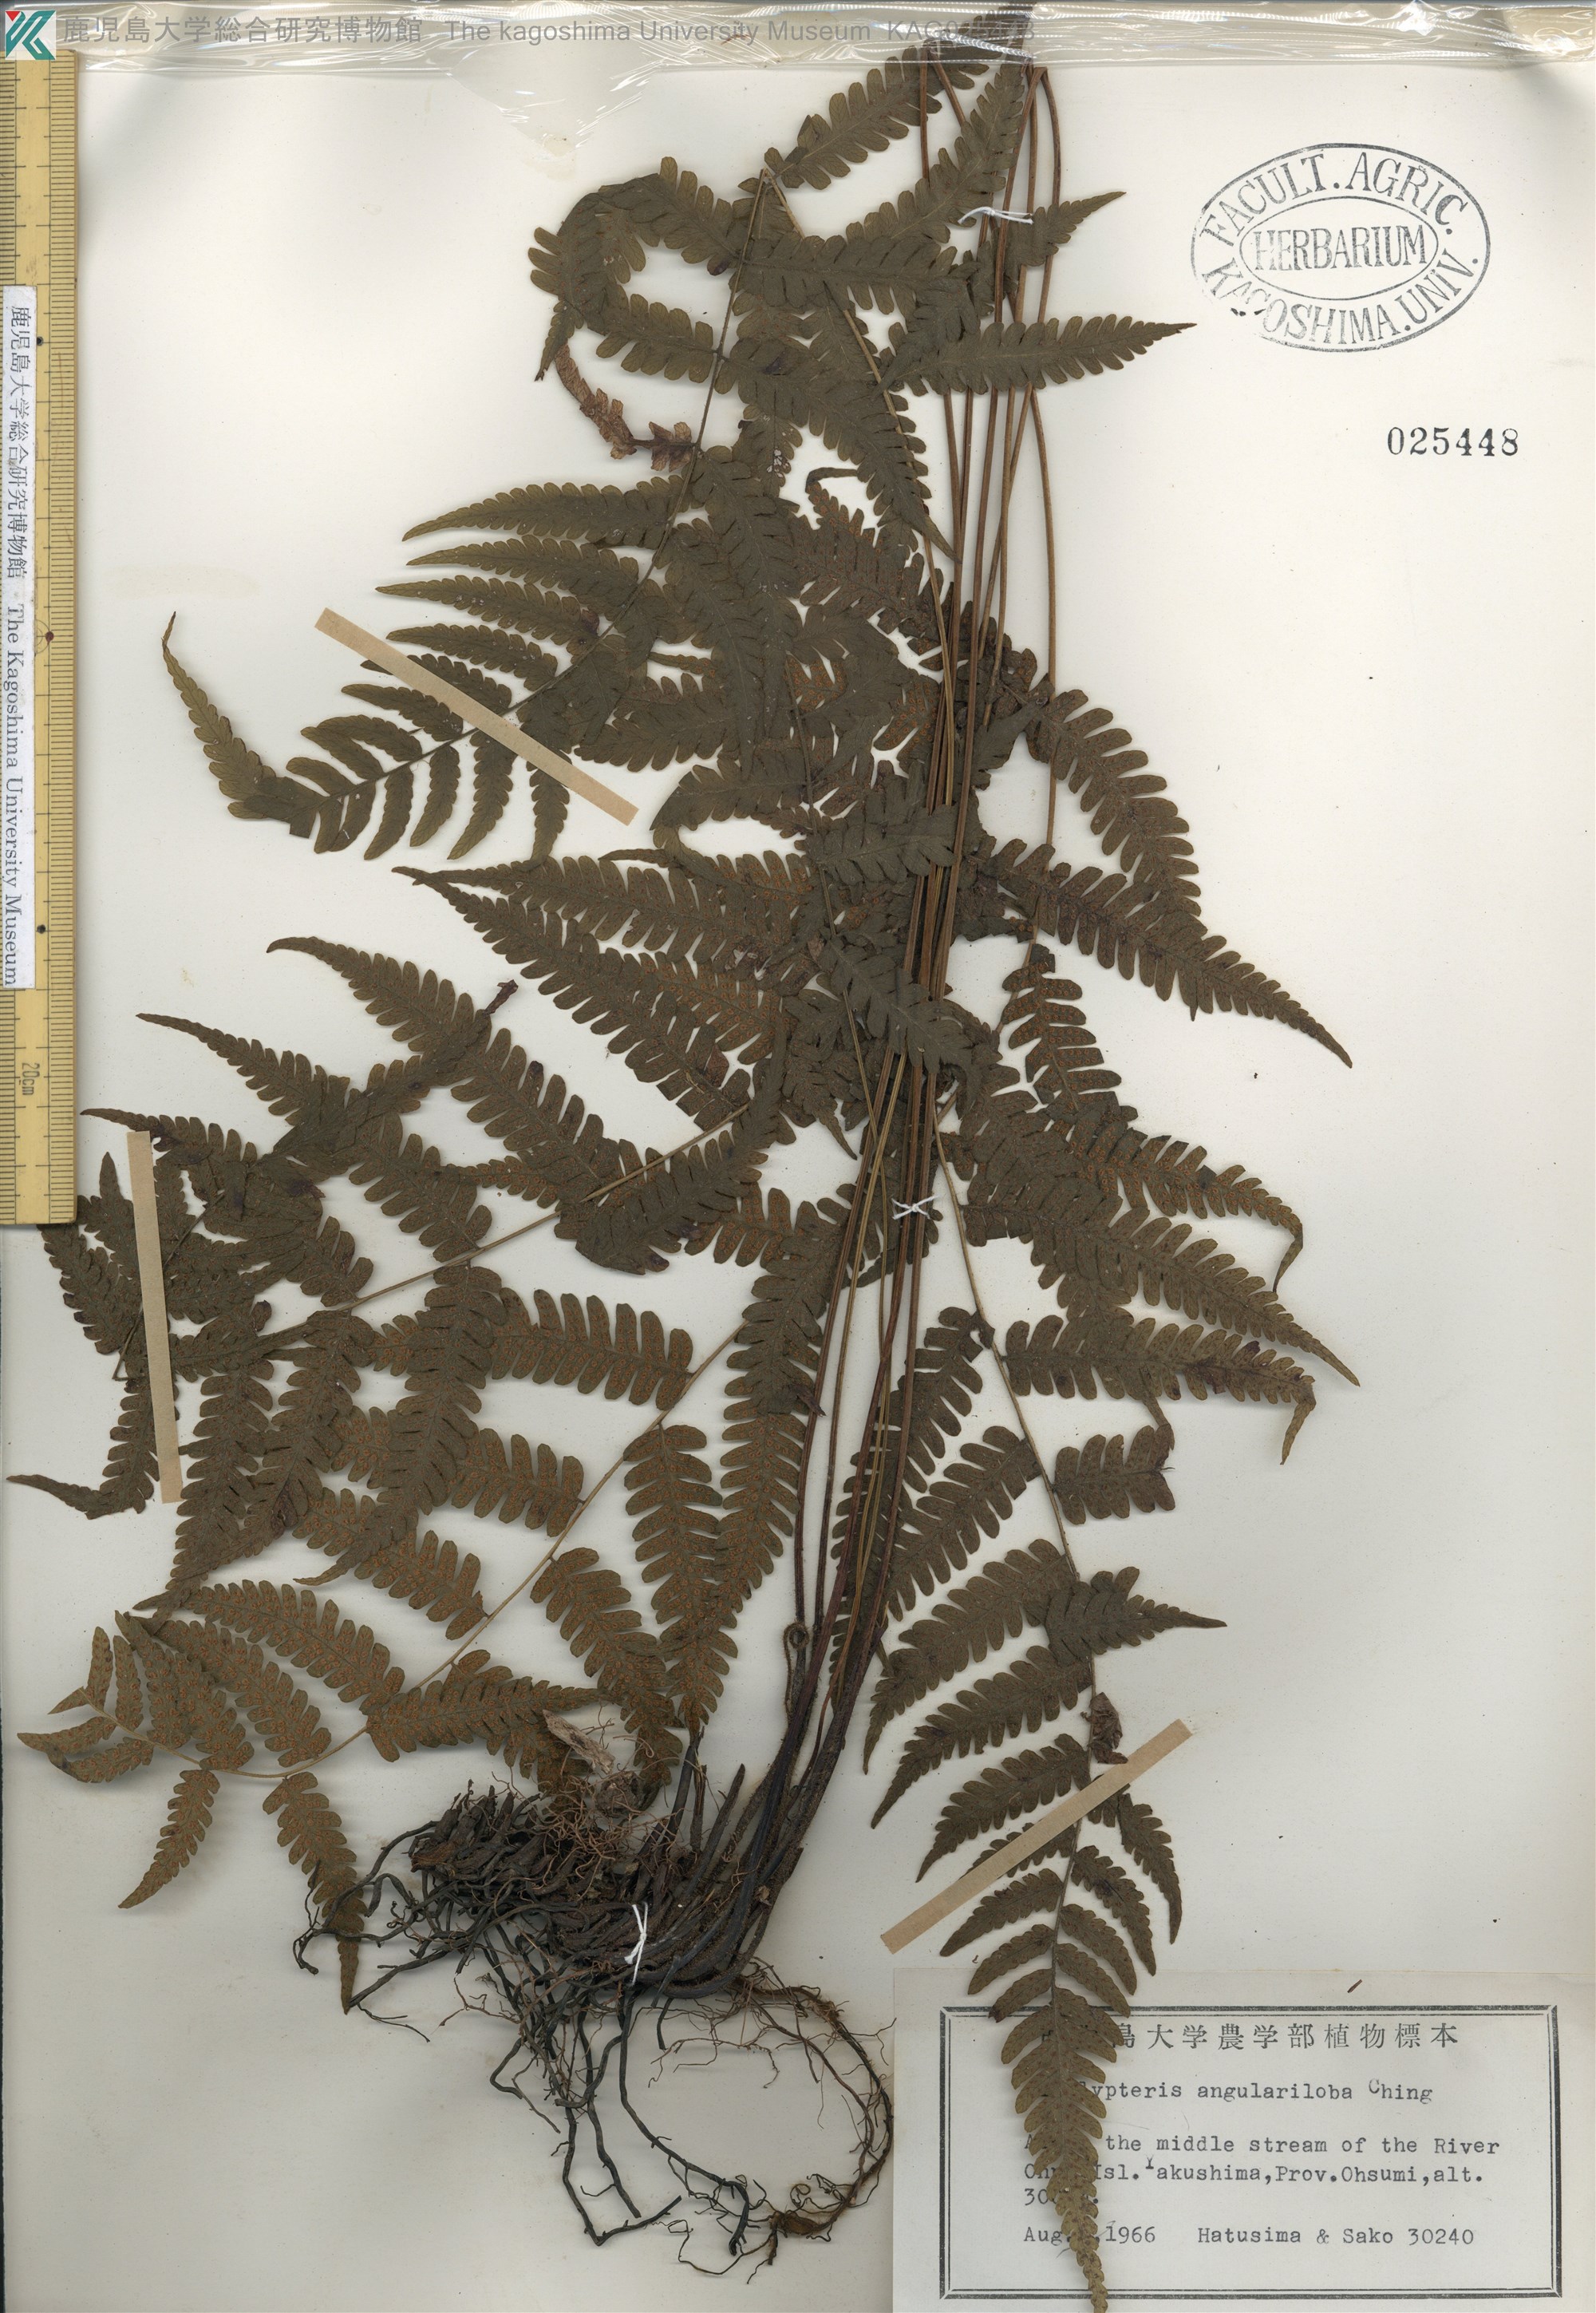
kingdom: Plantae
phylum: Tracheophyta
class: Polypodiopsida
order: Polypodiales
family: Thelypteridaceae
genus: Coryphopteris
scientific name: Coryphopteris hirsutipes
